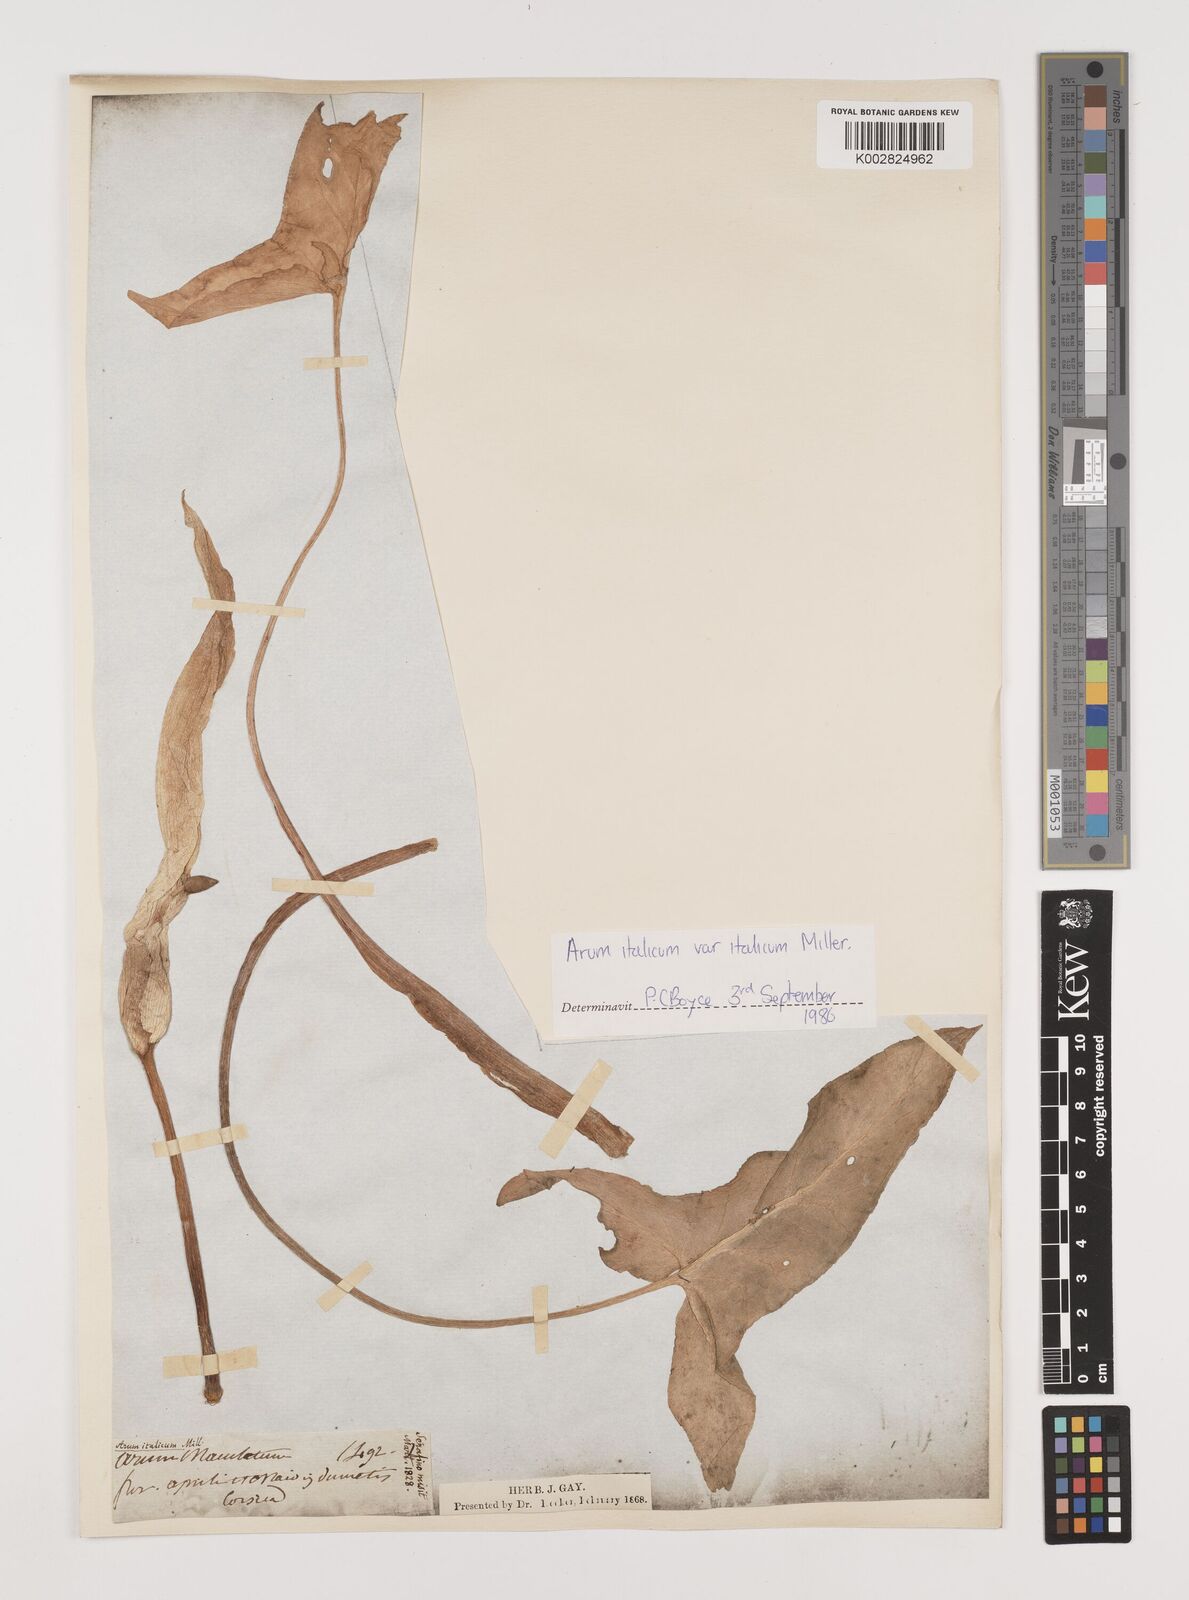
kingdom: Plantae
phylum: Tracheophyta
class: Liliopsida
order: Alismatales
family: Araceae
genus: Arum
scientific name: Arum italicum
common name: Italian lords-and-ladies
